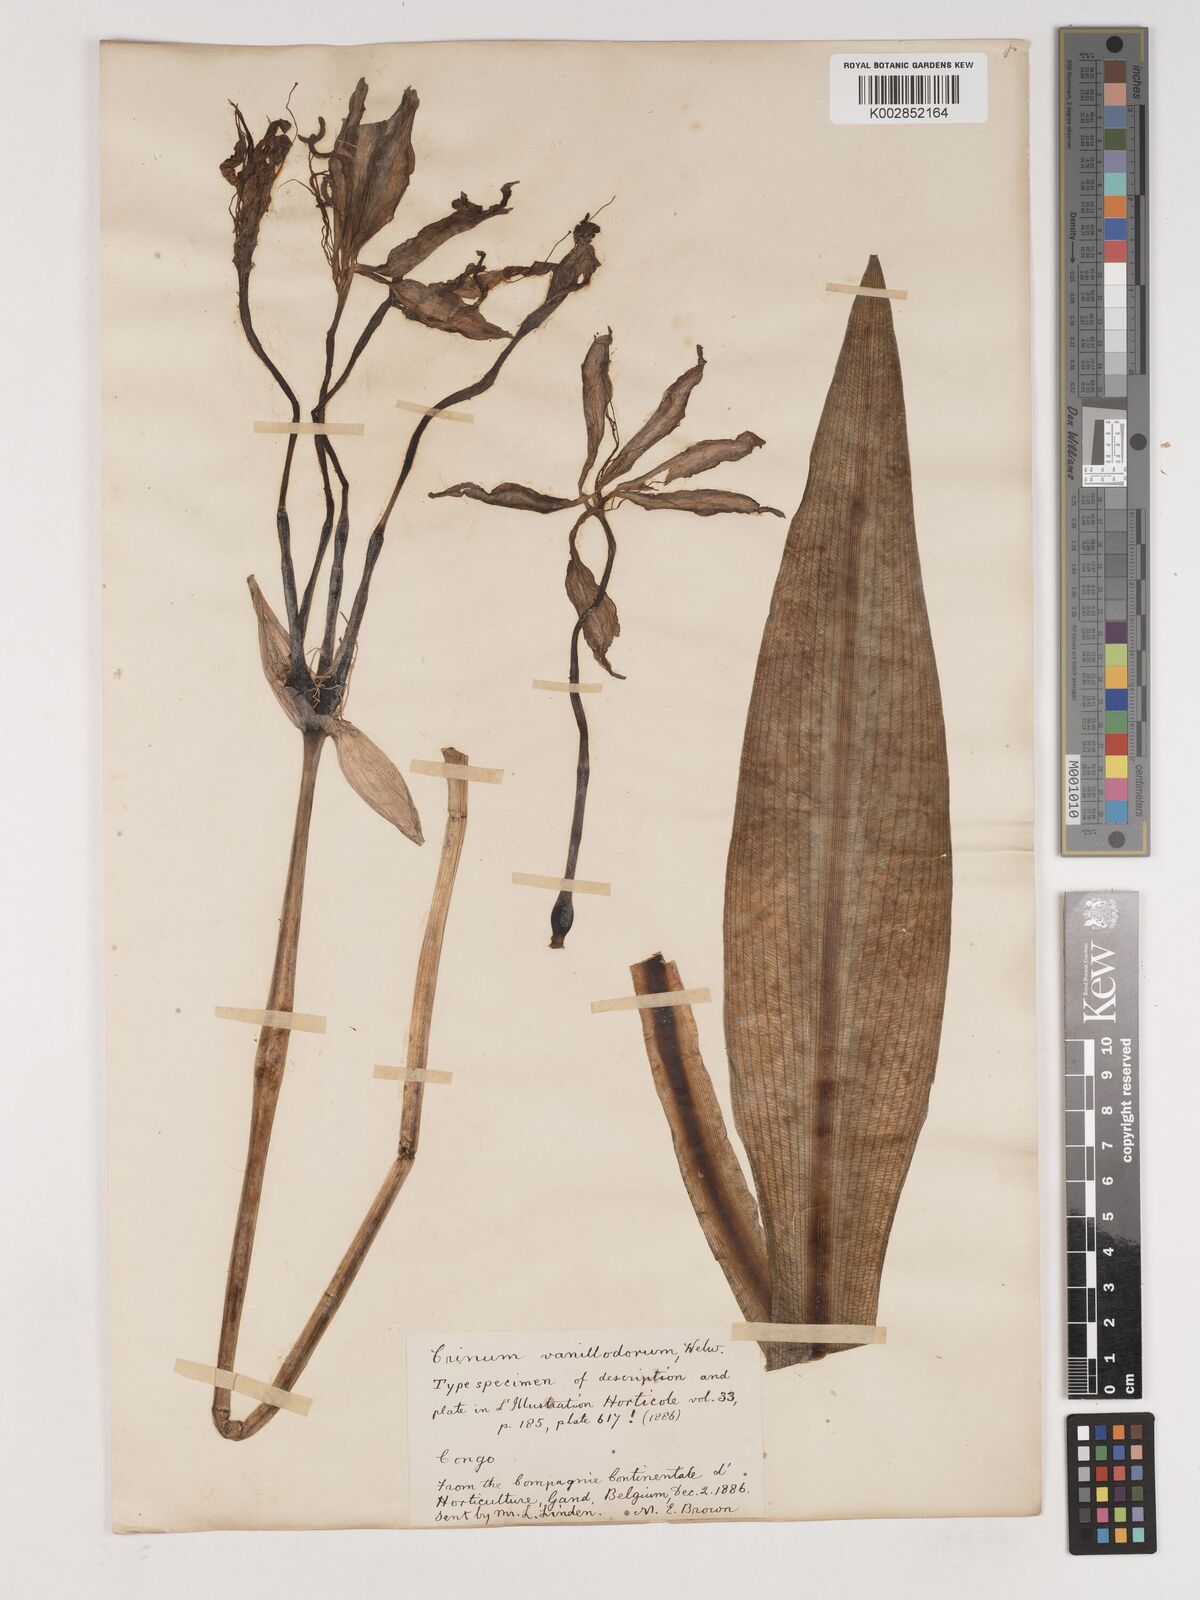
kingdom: Plantae
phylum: Tracheophyta
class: Liliopsida
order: Asparagales
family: Amaryllidaceae
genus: Crinum
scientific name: Crinum jagus
